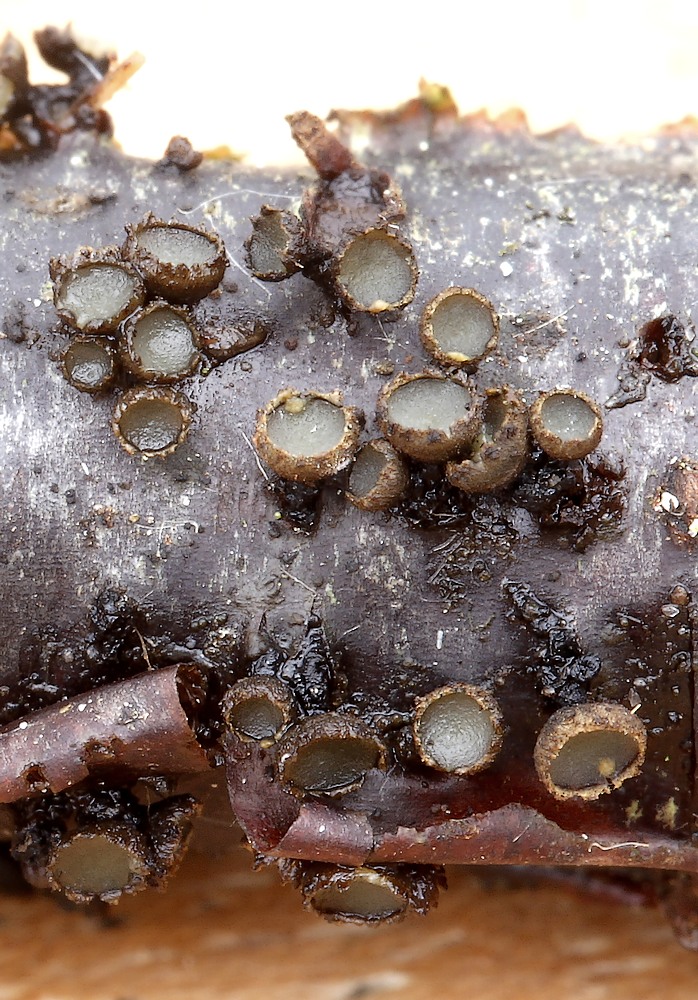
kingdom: Fungi
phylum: Ascomycota
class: Leotiomycetes
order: Helotiales
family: Godroniaceae
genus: Godronia
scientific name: Godronia ribis
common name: ribs-urneskive
